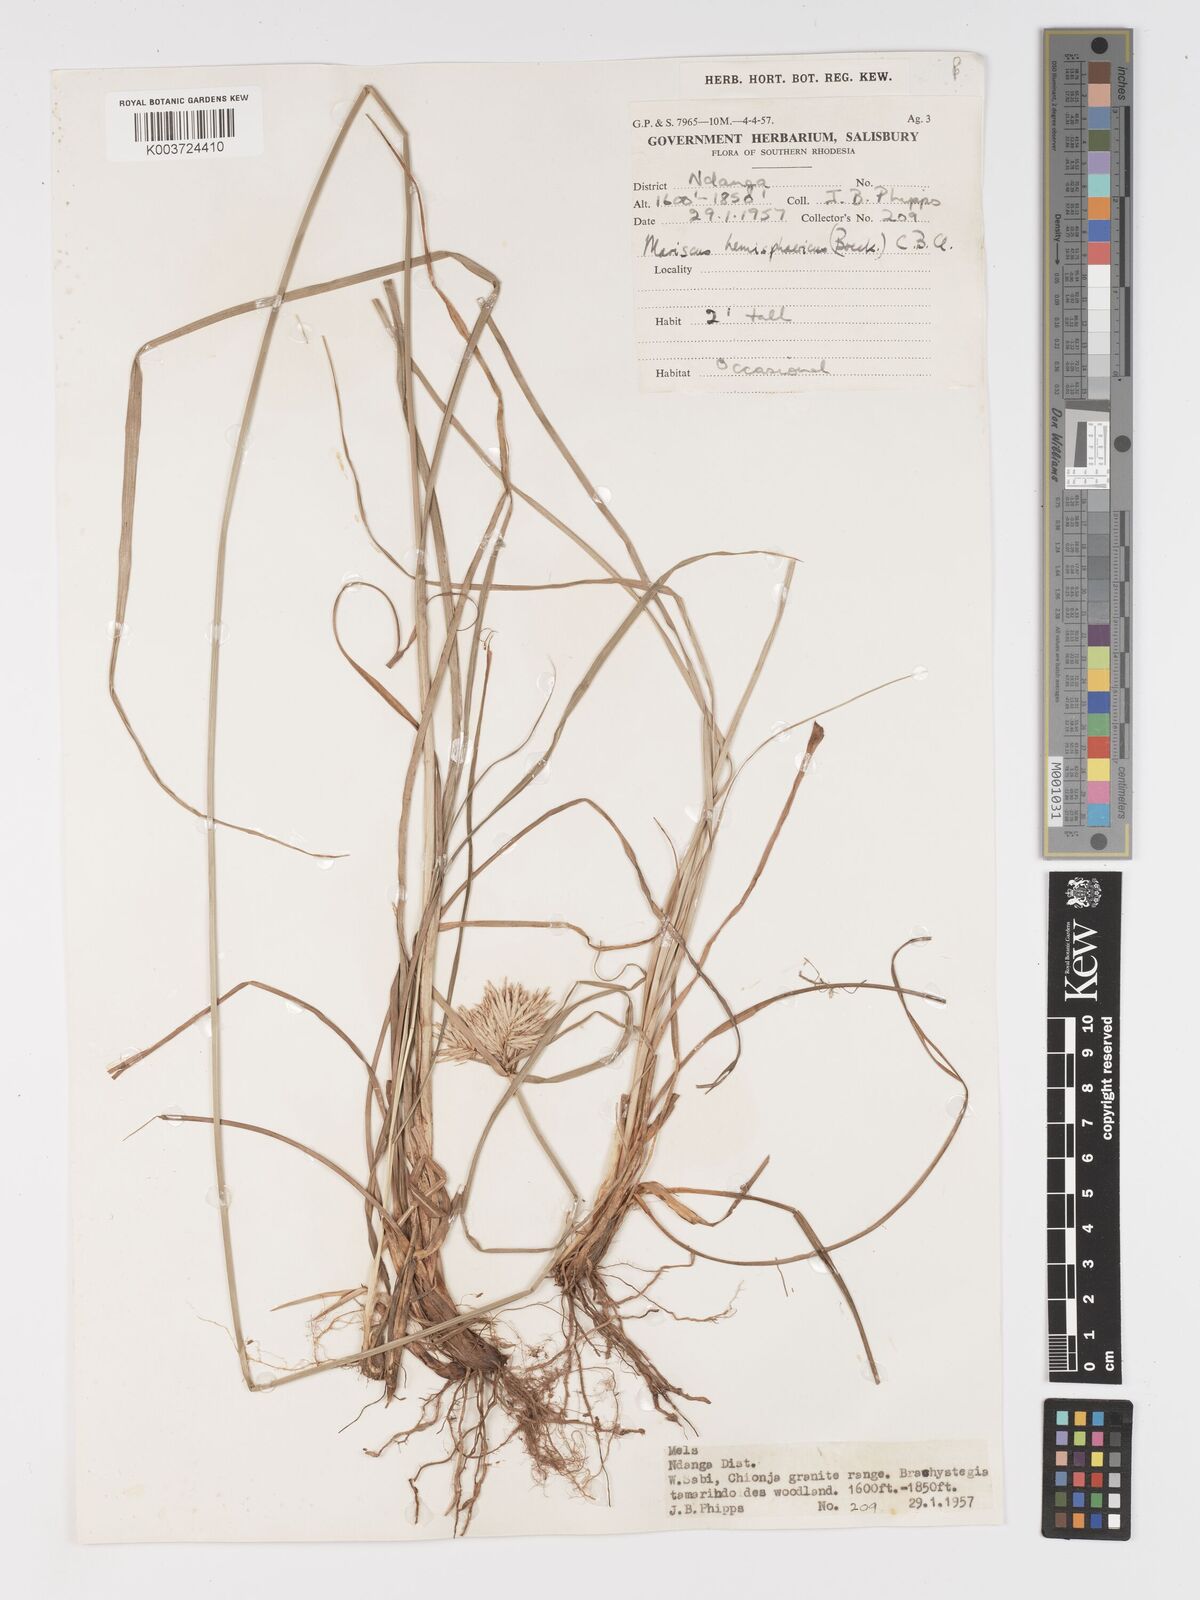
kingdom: Plantae
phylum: Tracheophyta
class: Liliopsida
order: Poales
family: Cyperaceae
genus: Cyperus
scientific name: Cyperus hemisphaericus
